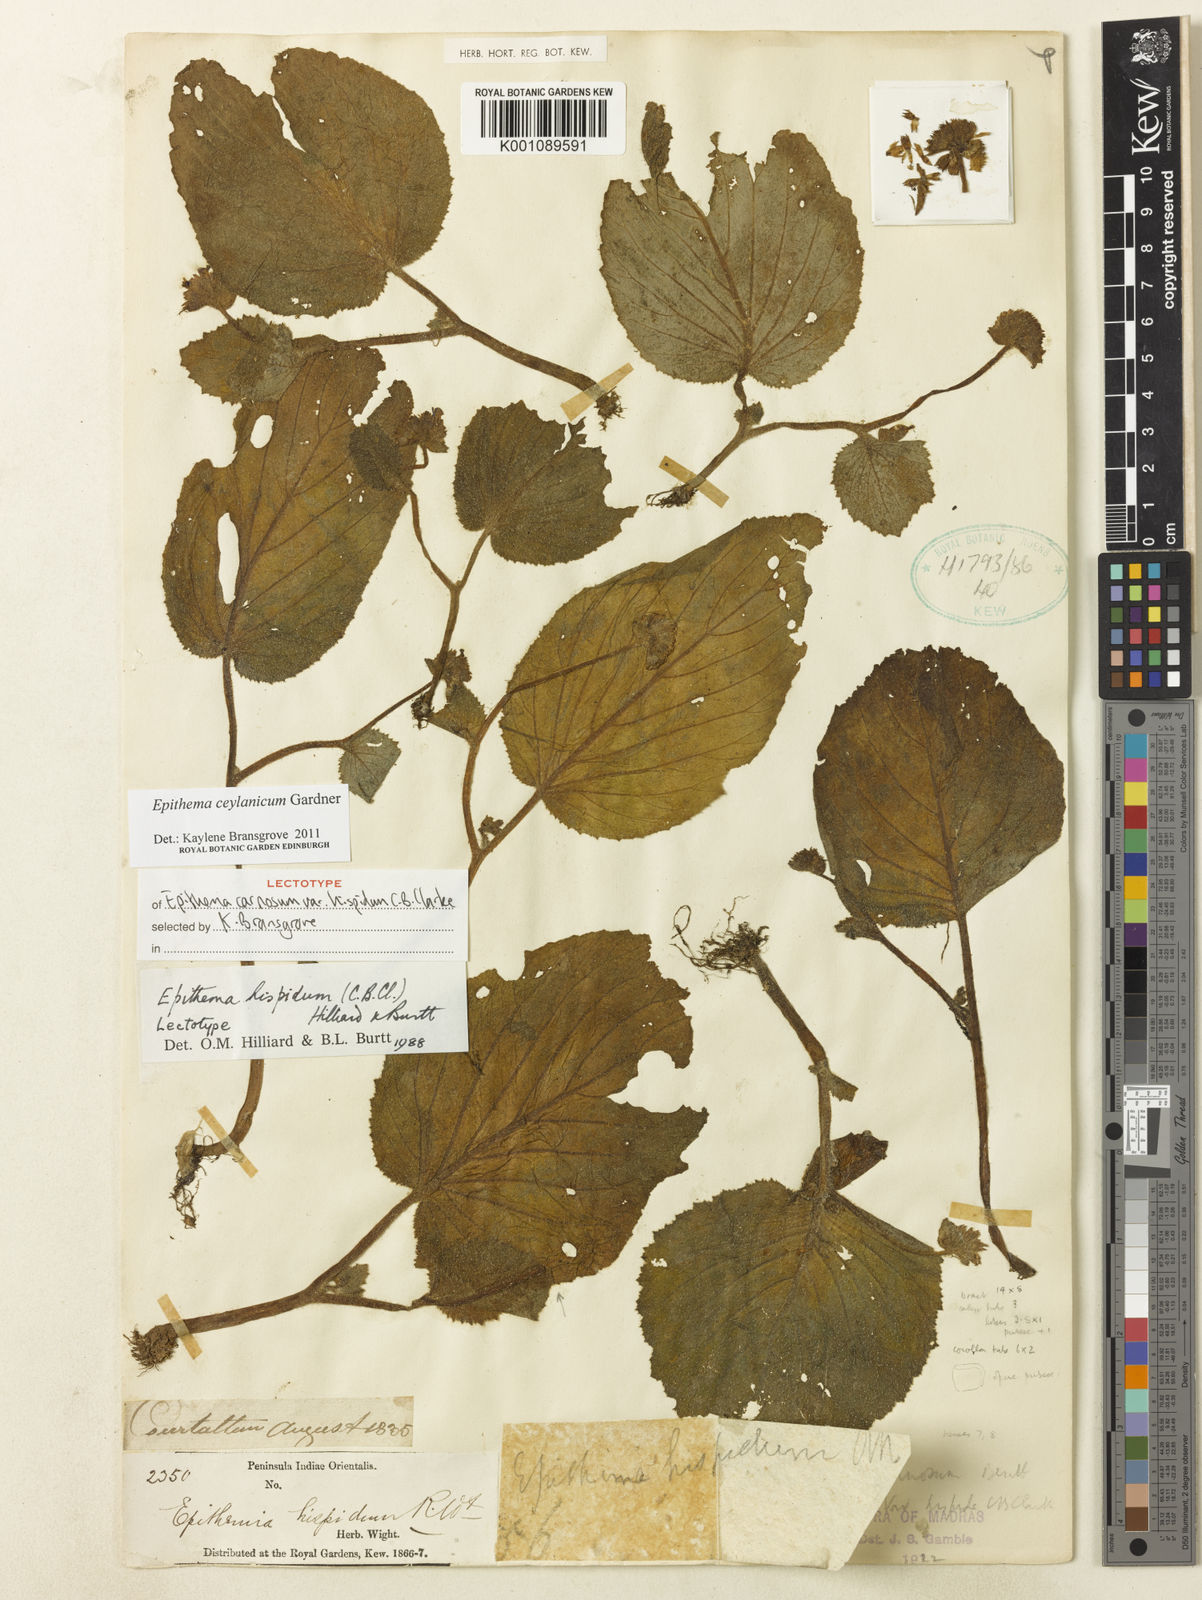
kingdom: Plantae
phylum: Tracheophyta
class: Magnoliopsida
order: Lamiales
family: Gesneriaceae
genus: Epithema
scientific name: Epithema ceylanicum
